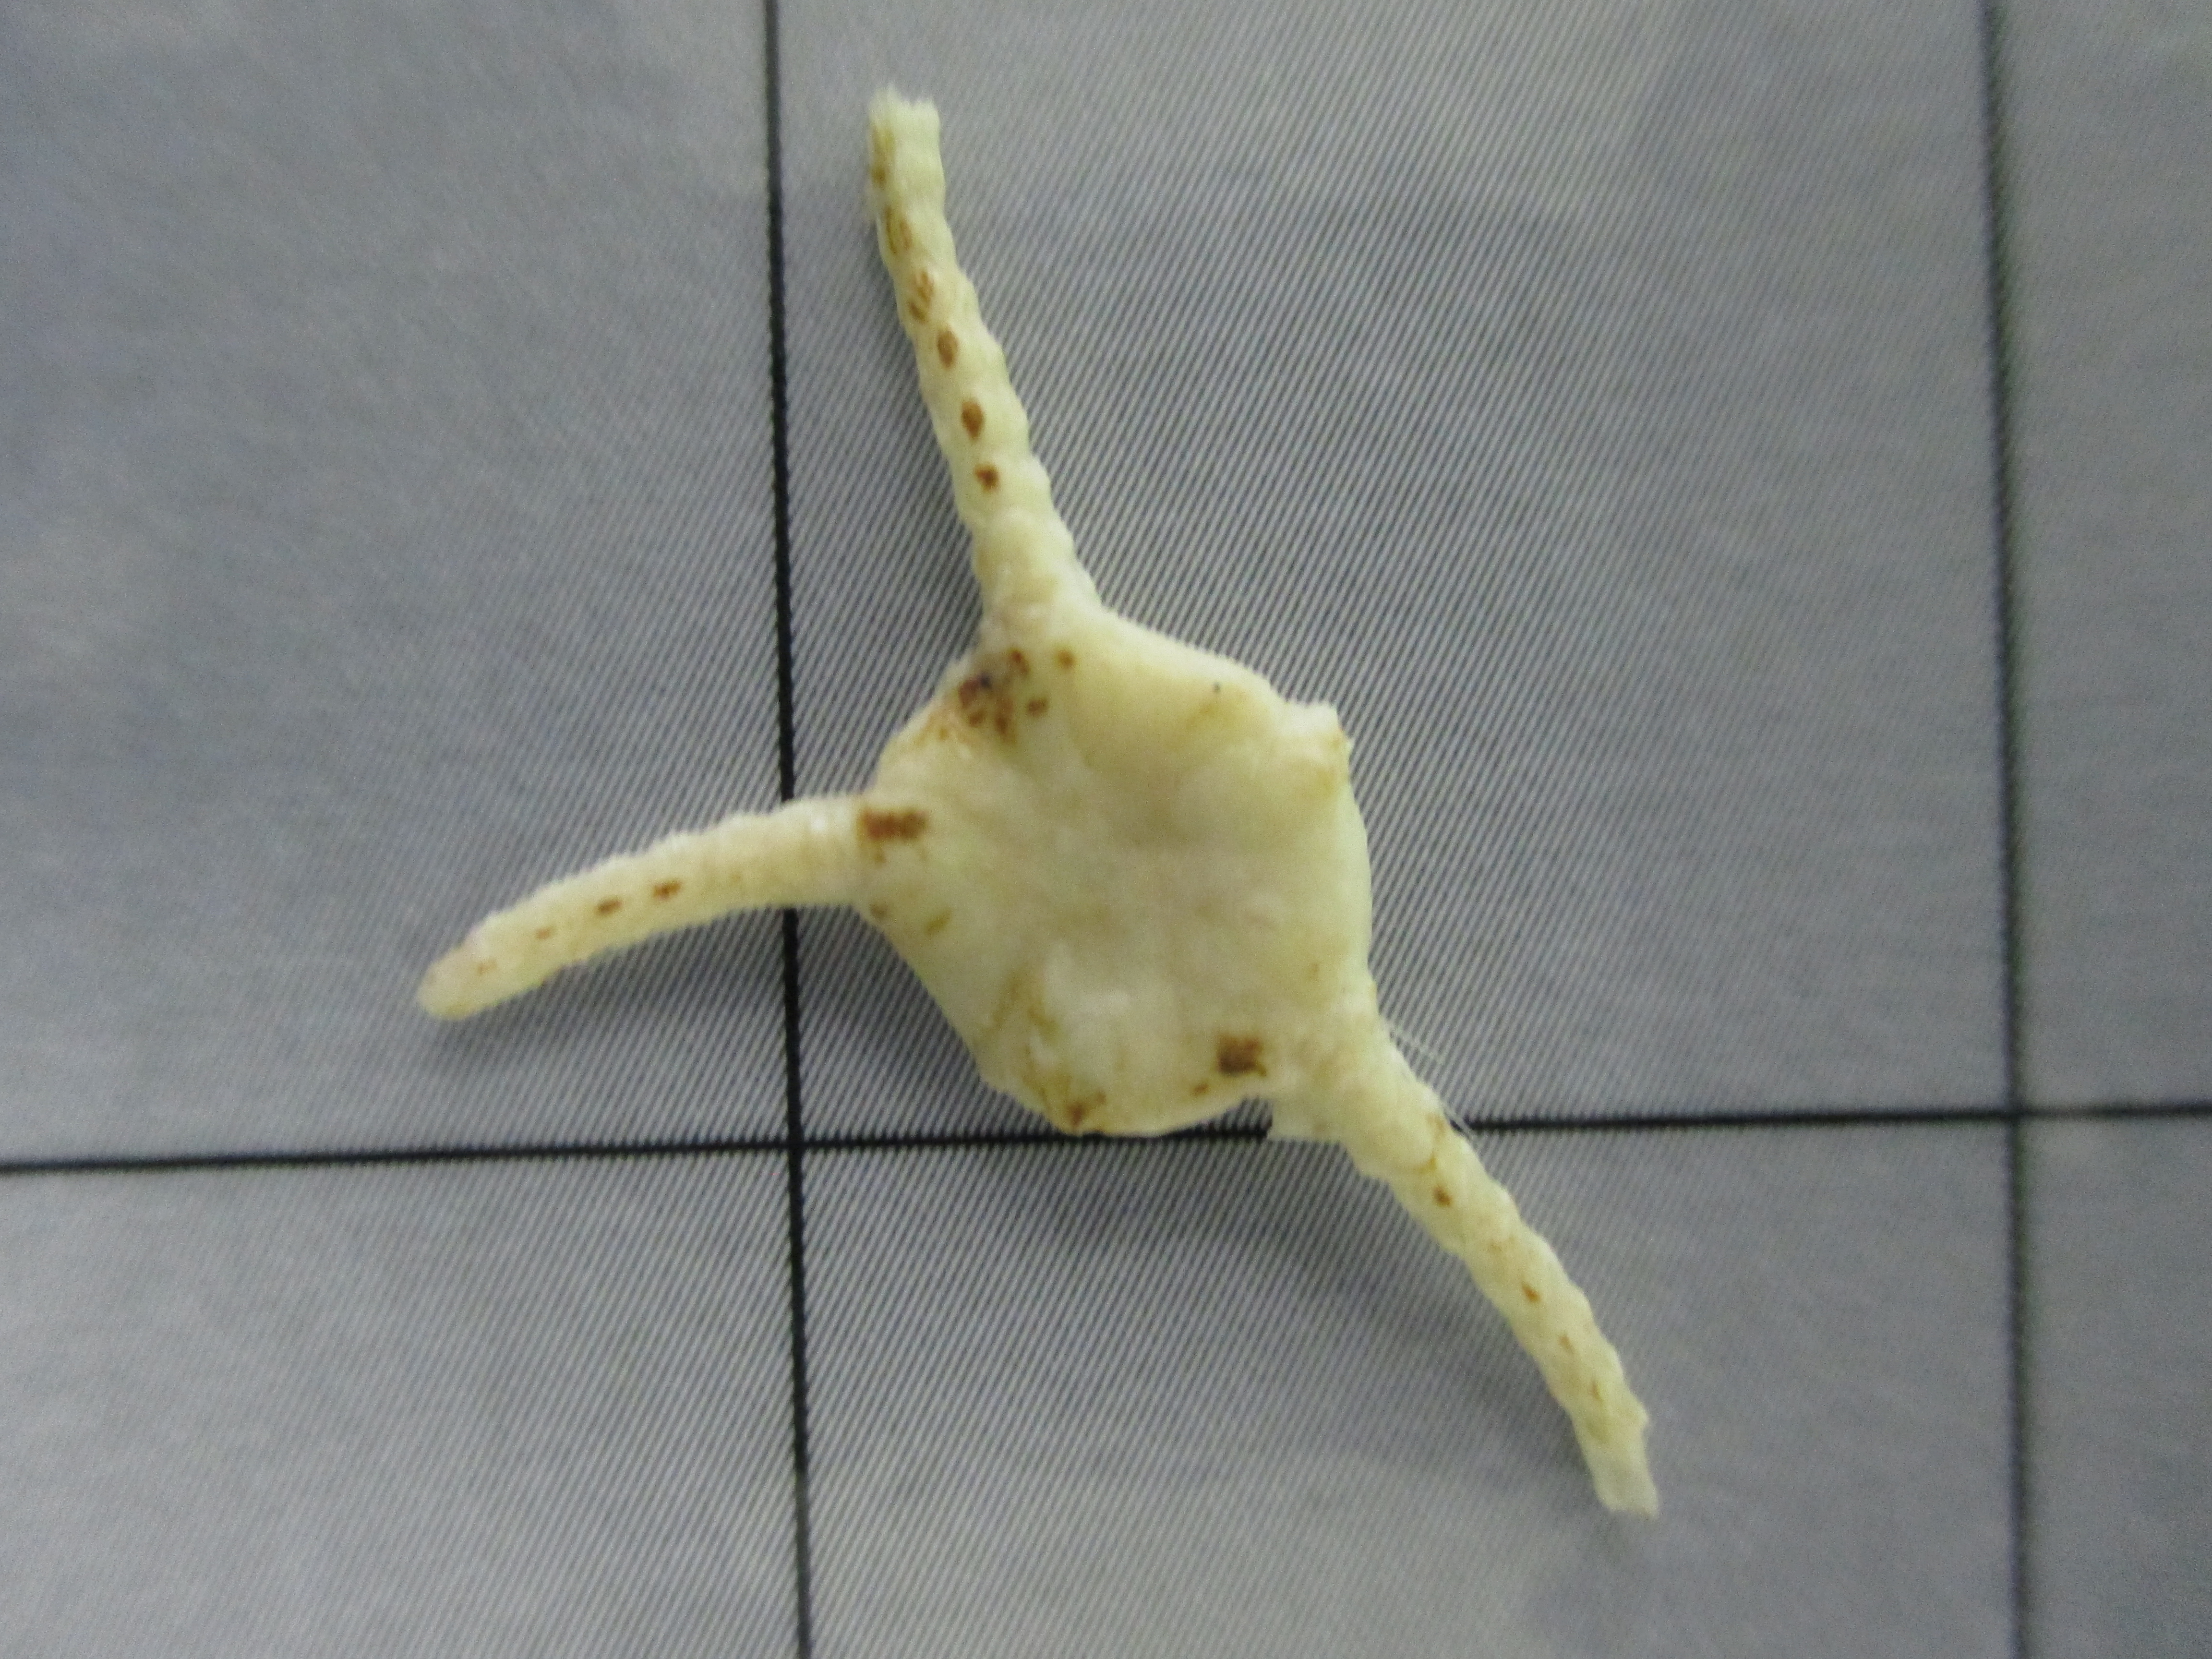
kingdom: Animalia
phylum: Echinodermata
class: Ophiuroidea
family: Ophiuridae
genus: Ophiura
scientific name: Ophiura trimeni
